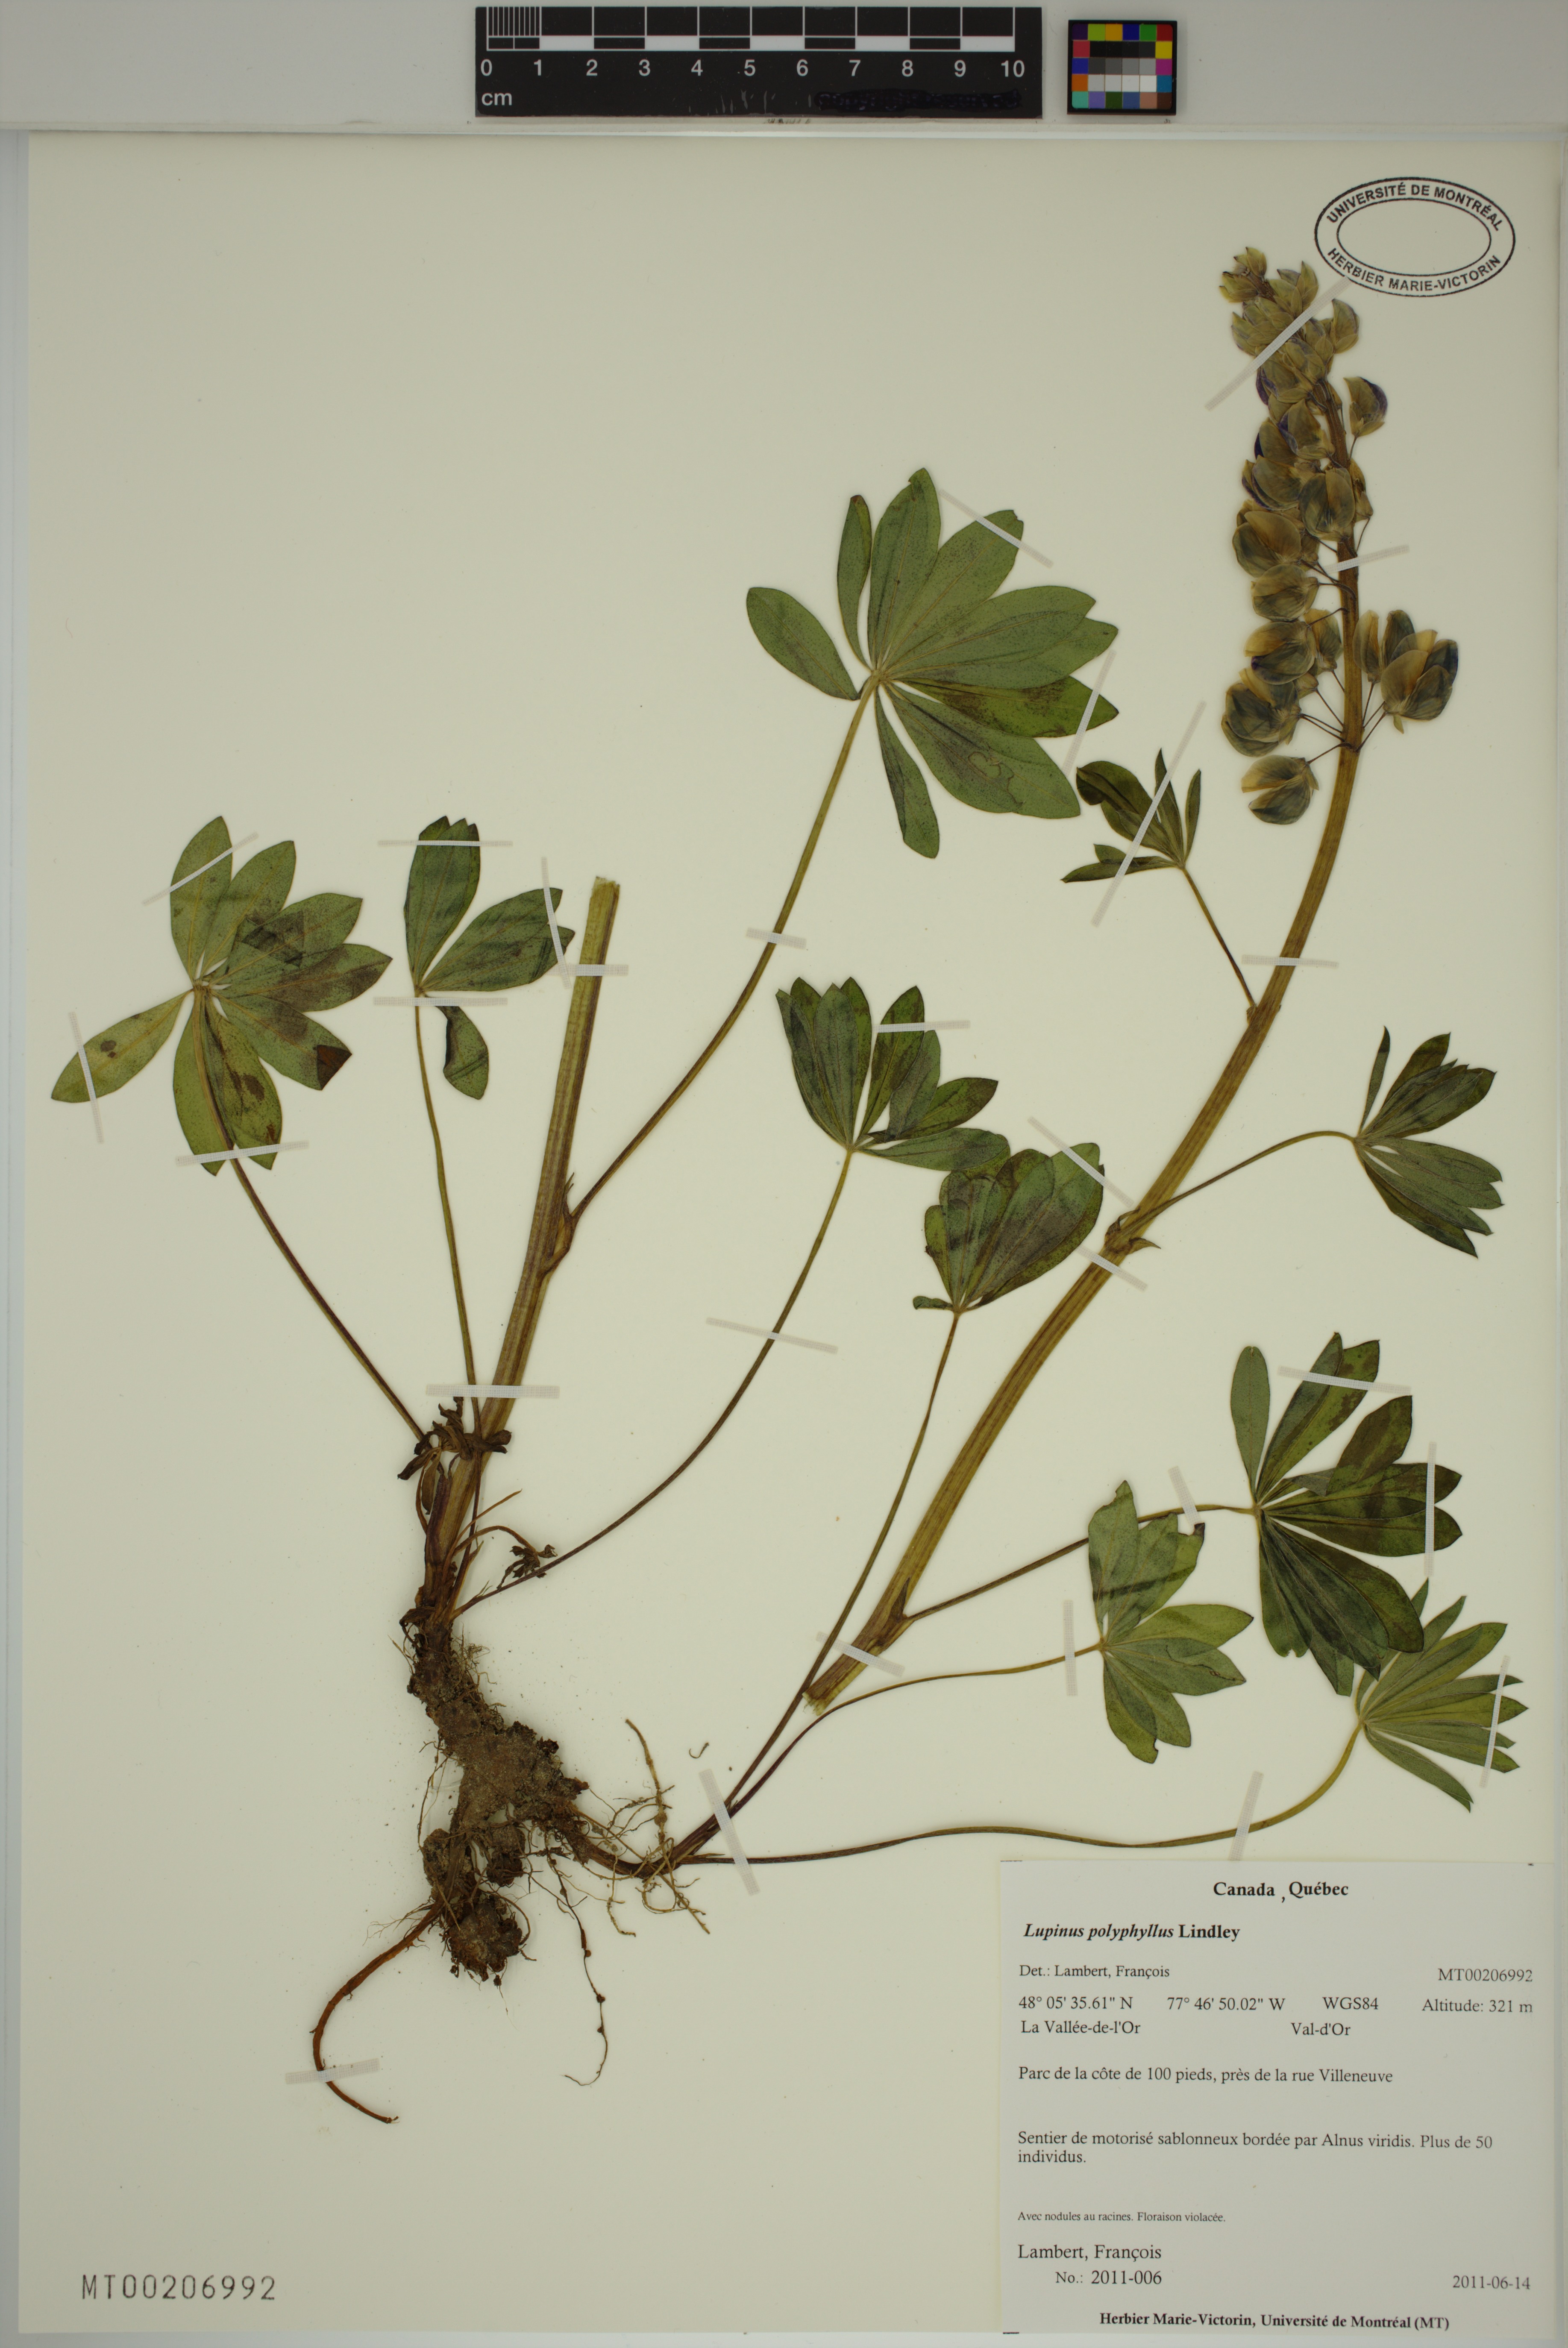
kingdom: Plantae
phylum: Tracheophyta
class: Magnoliopsida
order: Fabales
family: Fabaceae
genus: Lupinus
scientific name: Lupinus polyphyllus
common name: Garden lupin
